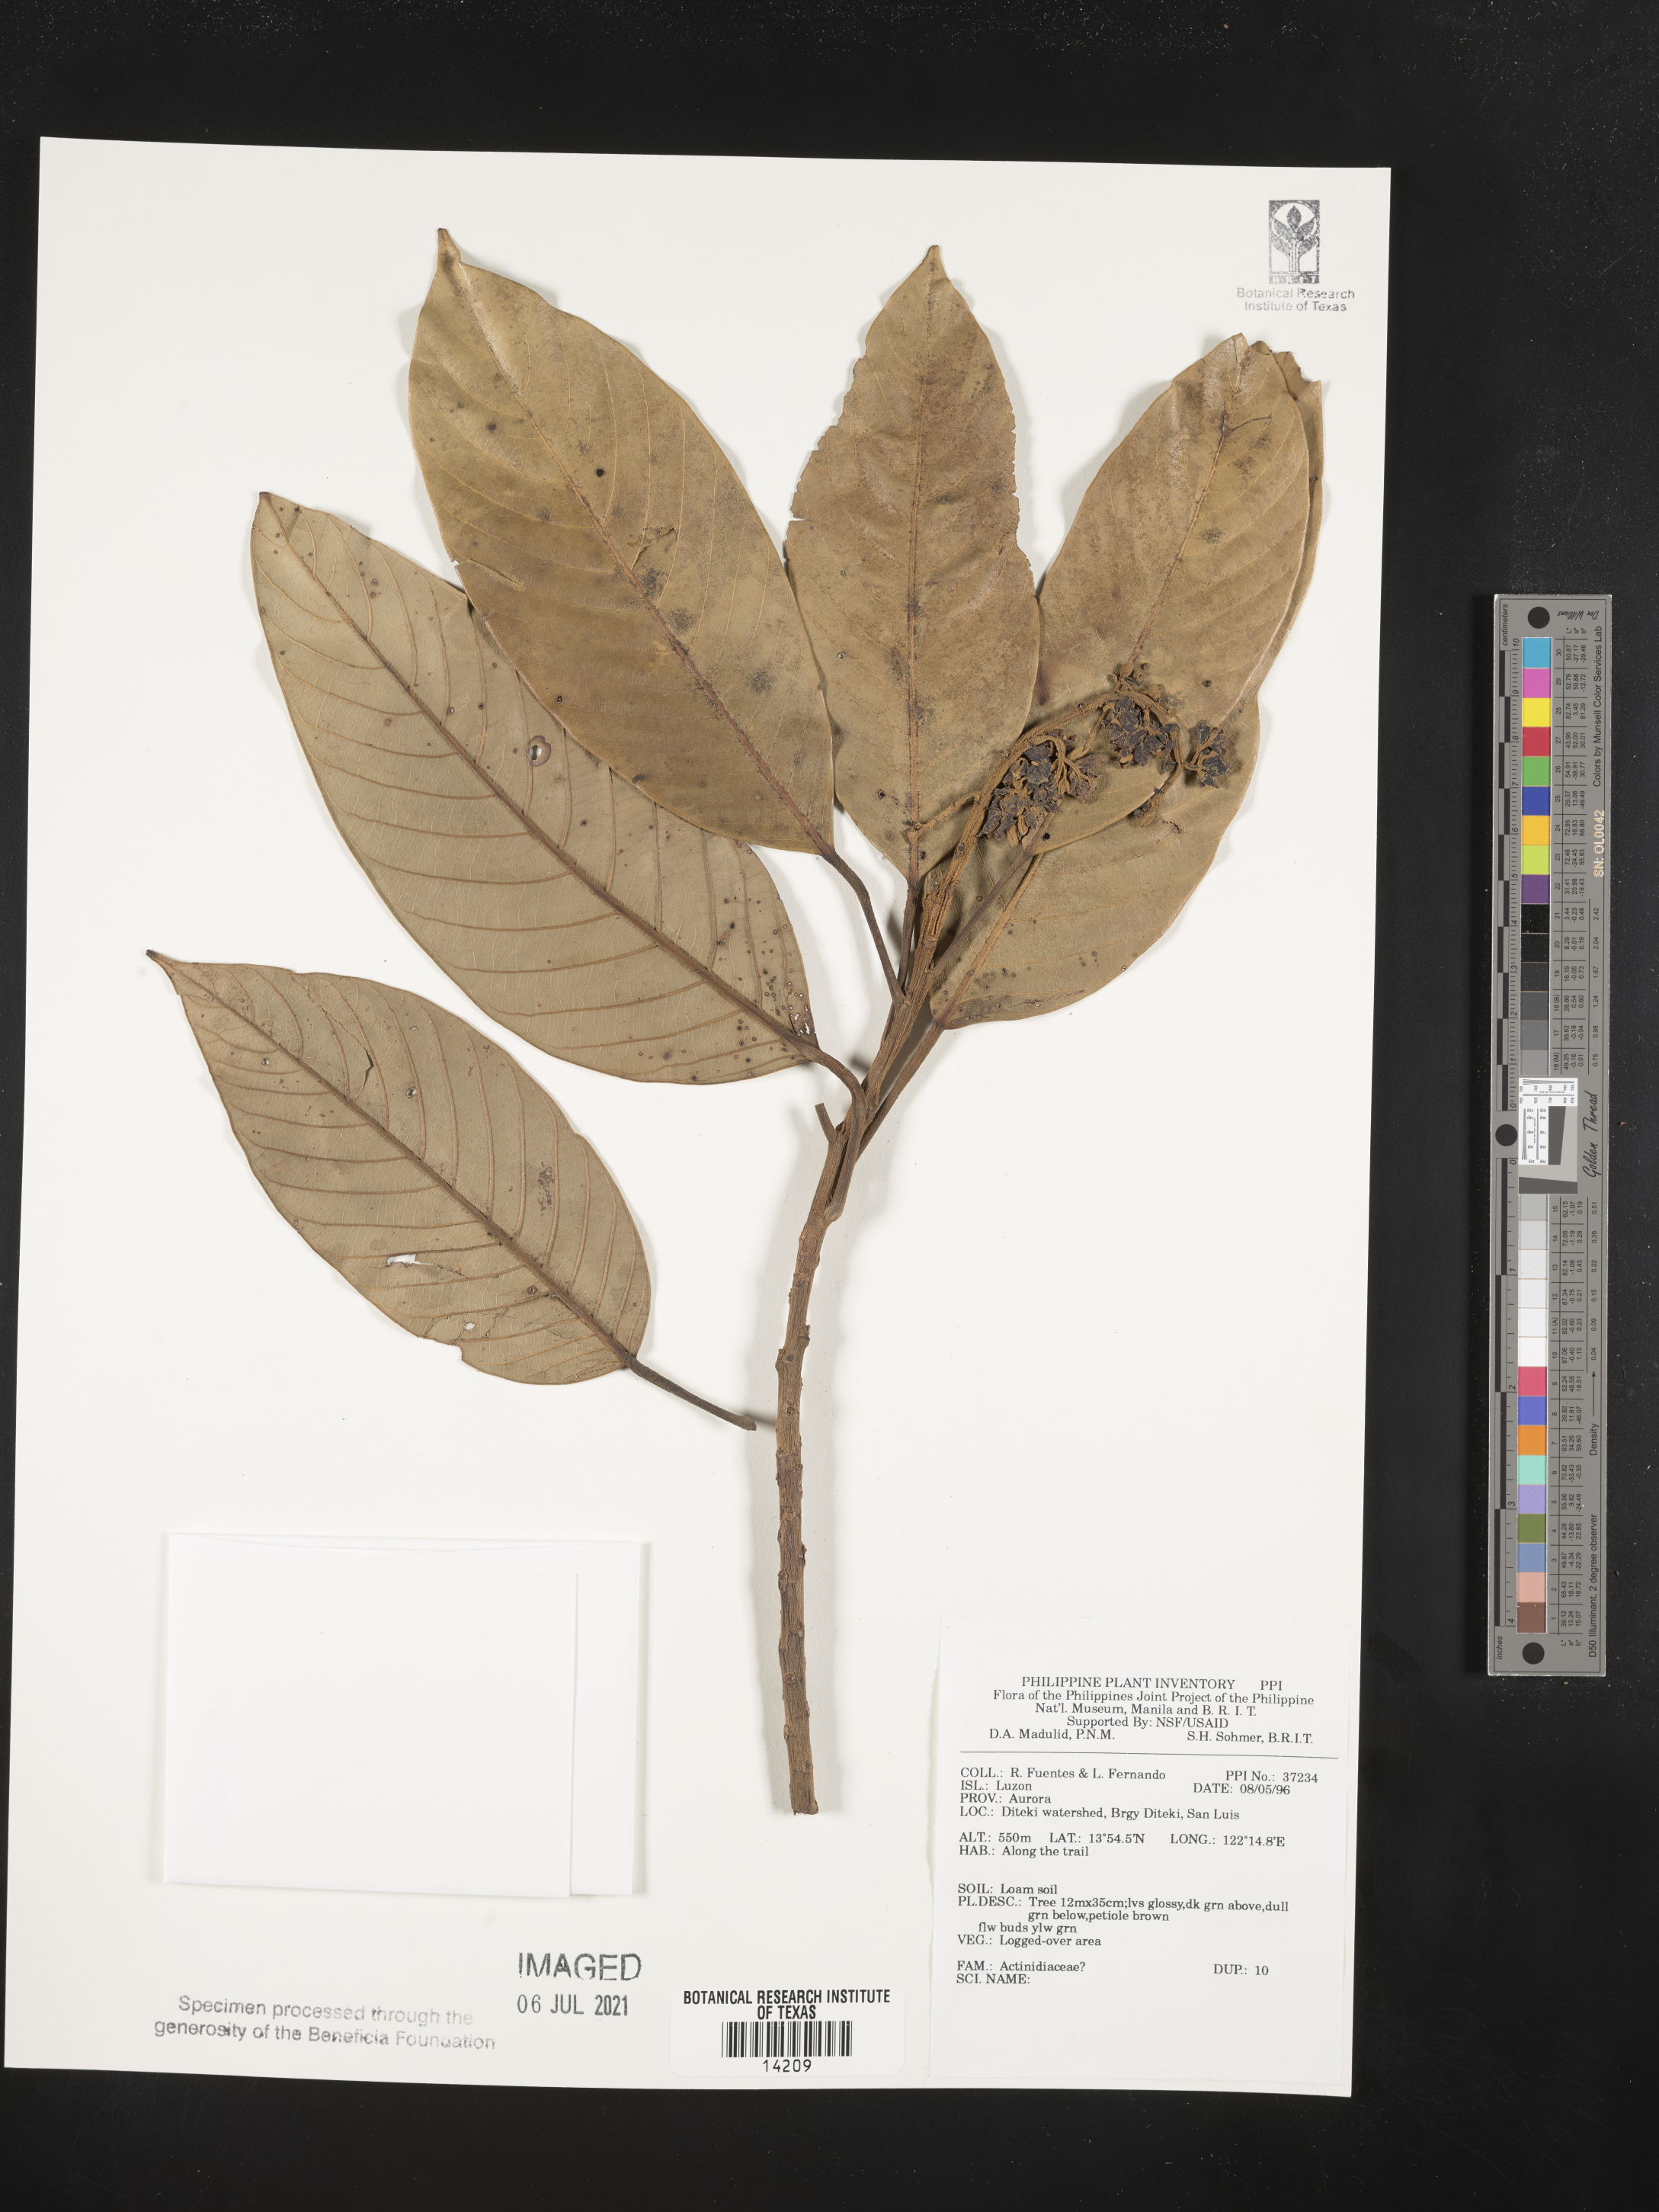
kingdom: Plantae
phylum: Tracheophyta
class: Magnoliopsida
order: Ericales
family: Actinidiaceae
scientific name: Actinidiaceae
